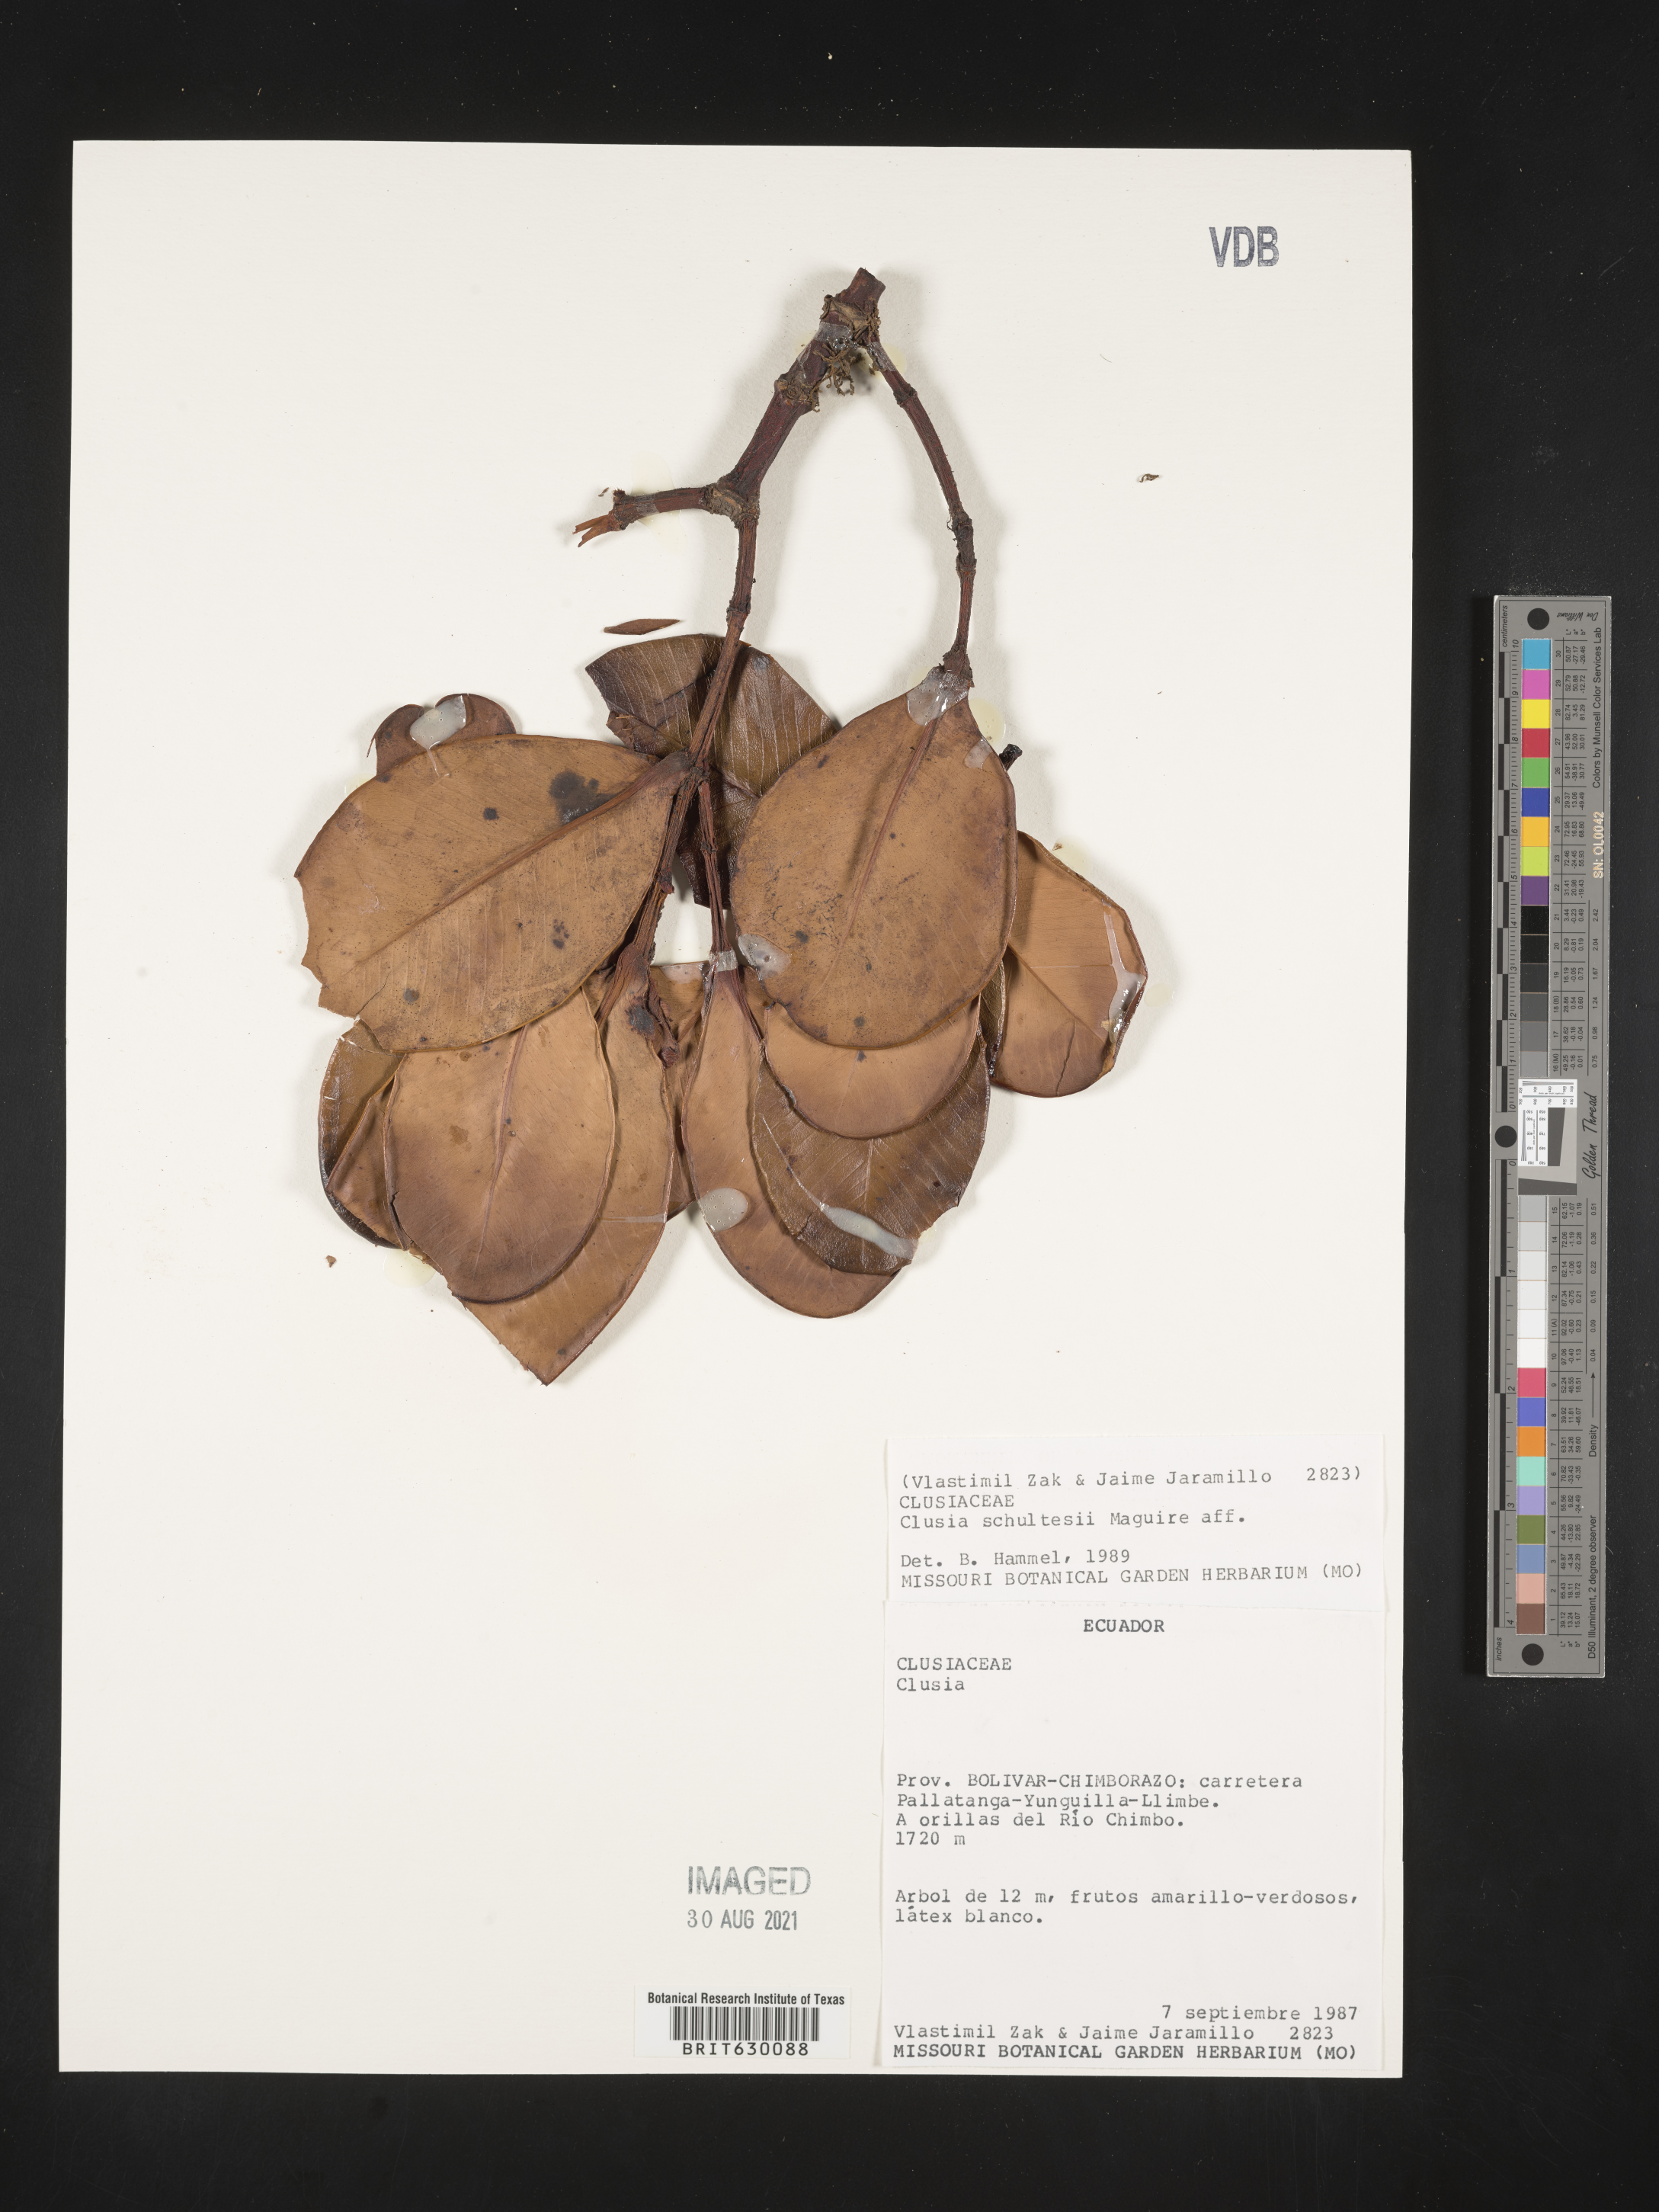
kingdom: Plantae
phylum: Tracheophyta
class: Magnoliopsida
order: Malpighiales
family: Clusiaceae
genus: Clusia
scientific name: Clusia schultesii
